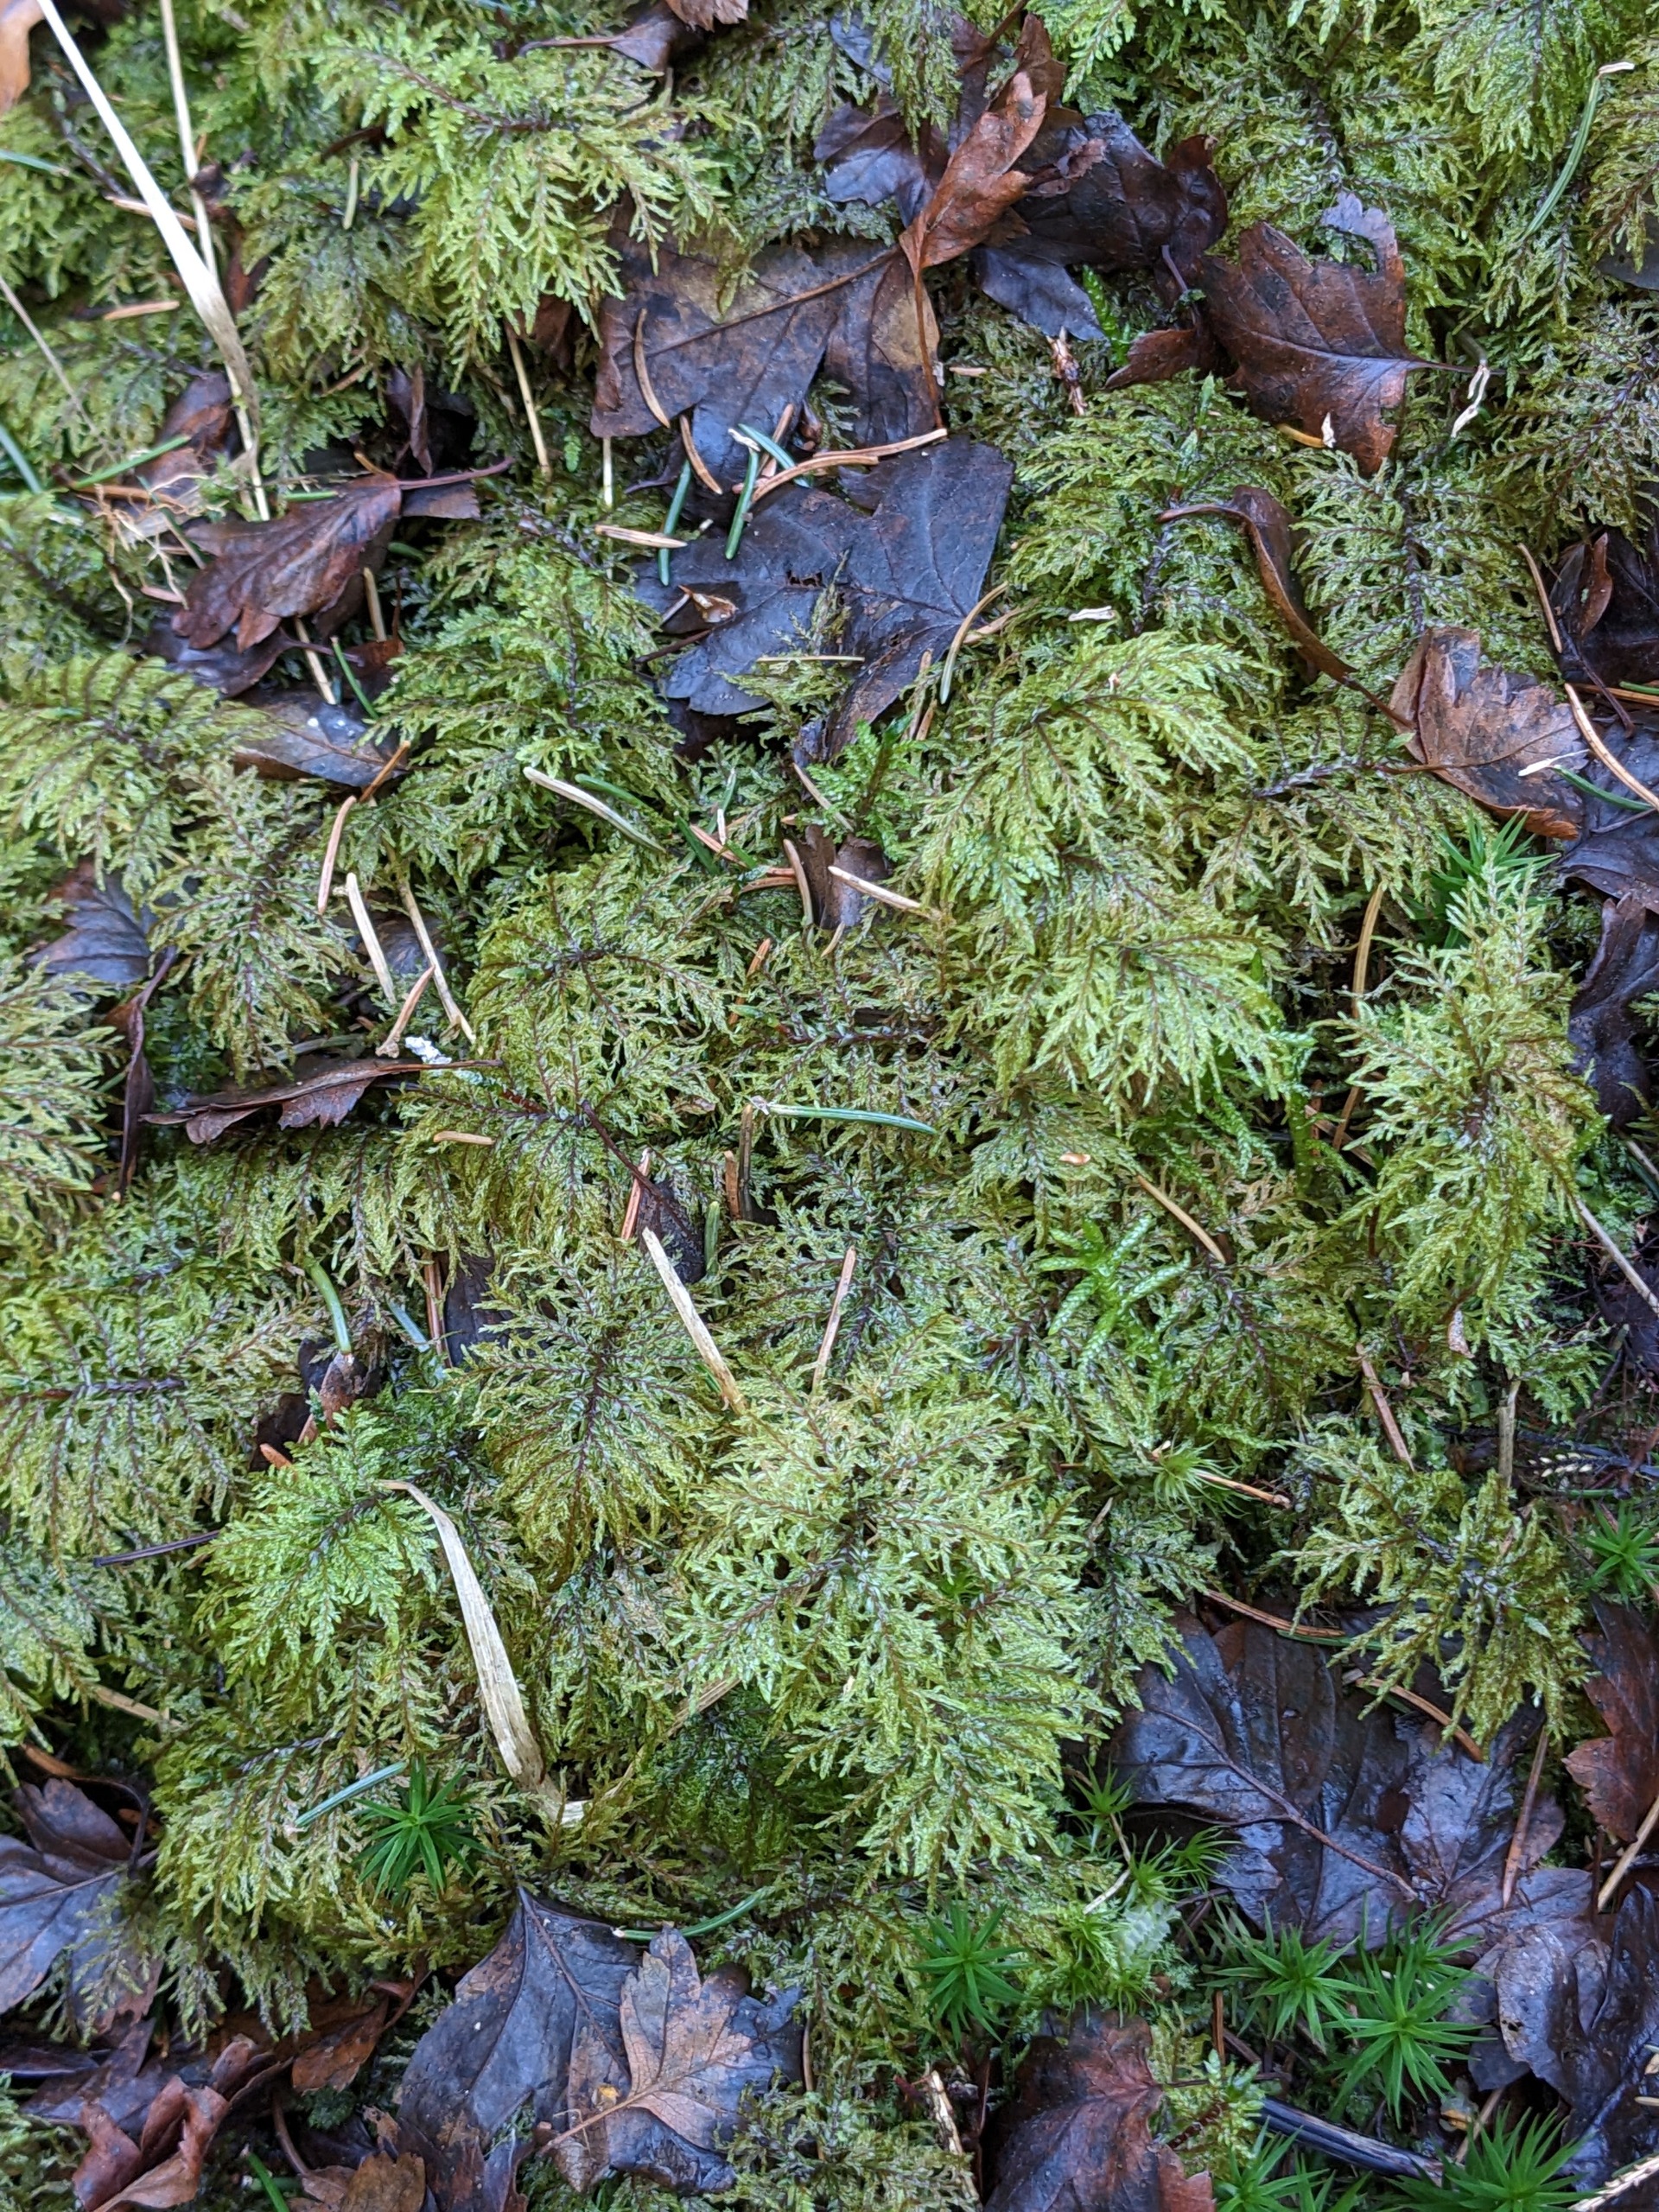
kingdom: Plantae
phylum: Bryophyta
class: Bryopsida
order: Hypnales
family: Hylocomiaceae
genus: Hylocomium
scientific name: Hylocomium splendens
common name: Almindelig etagemos
